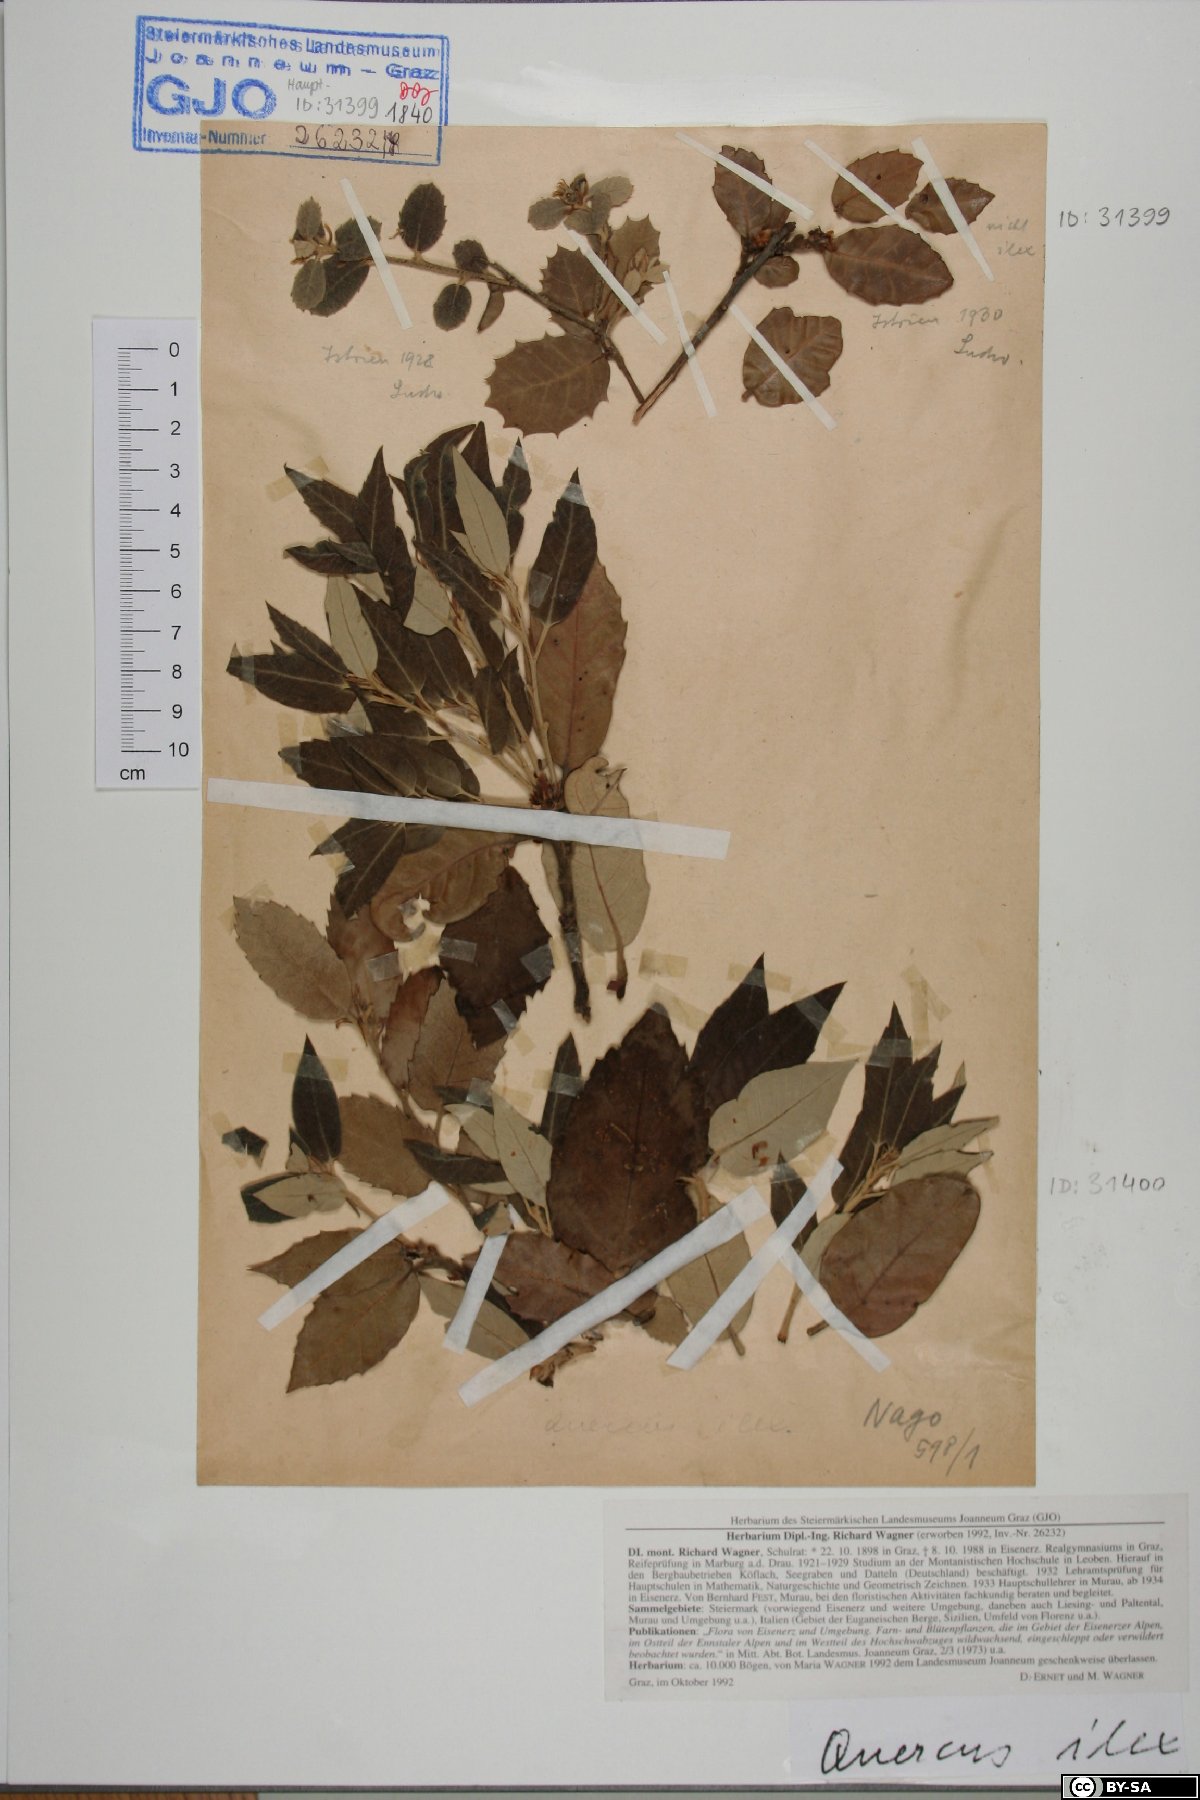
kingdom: Plantae
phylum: Tracheophyta
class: Magnoliopsida
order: Fagales
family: Fagaceae
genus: Quercus
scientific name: Quercus ilex
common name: Evergreen oak
